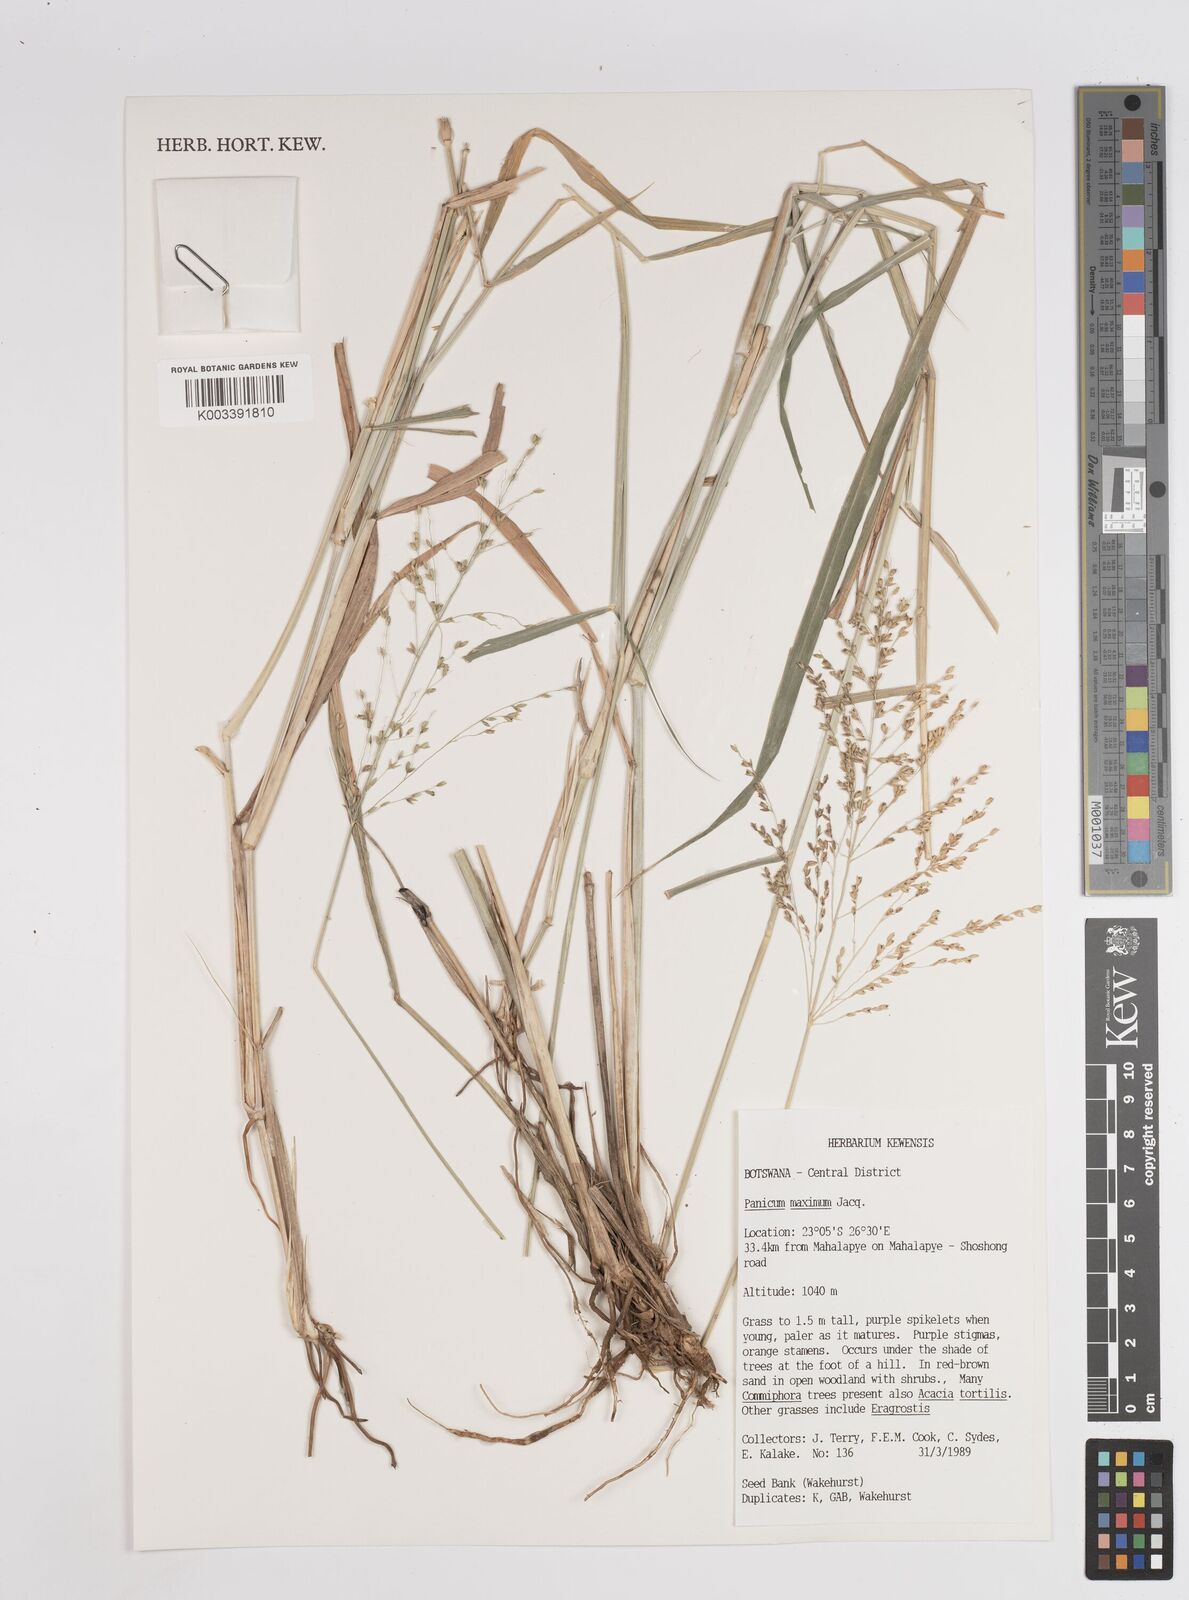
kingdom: Plantae
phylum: Tracheophyta
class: Liliopsida
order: Poales
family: Poaceae
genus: Megathyrsus
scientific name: Megathyrsus maximus
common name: Guineagrass
